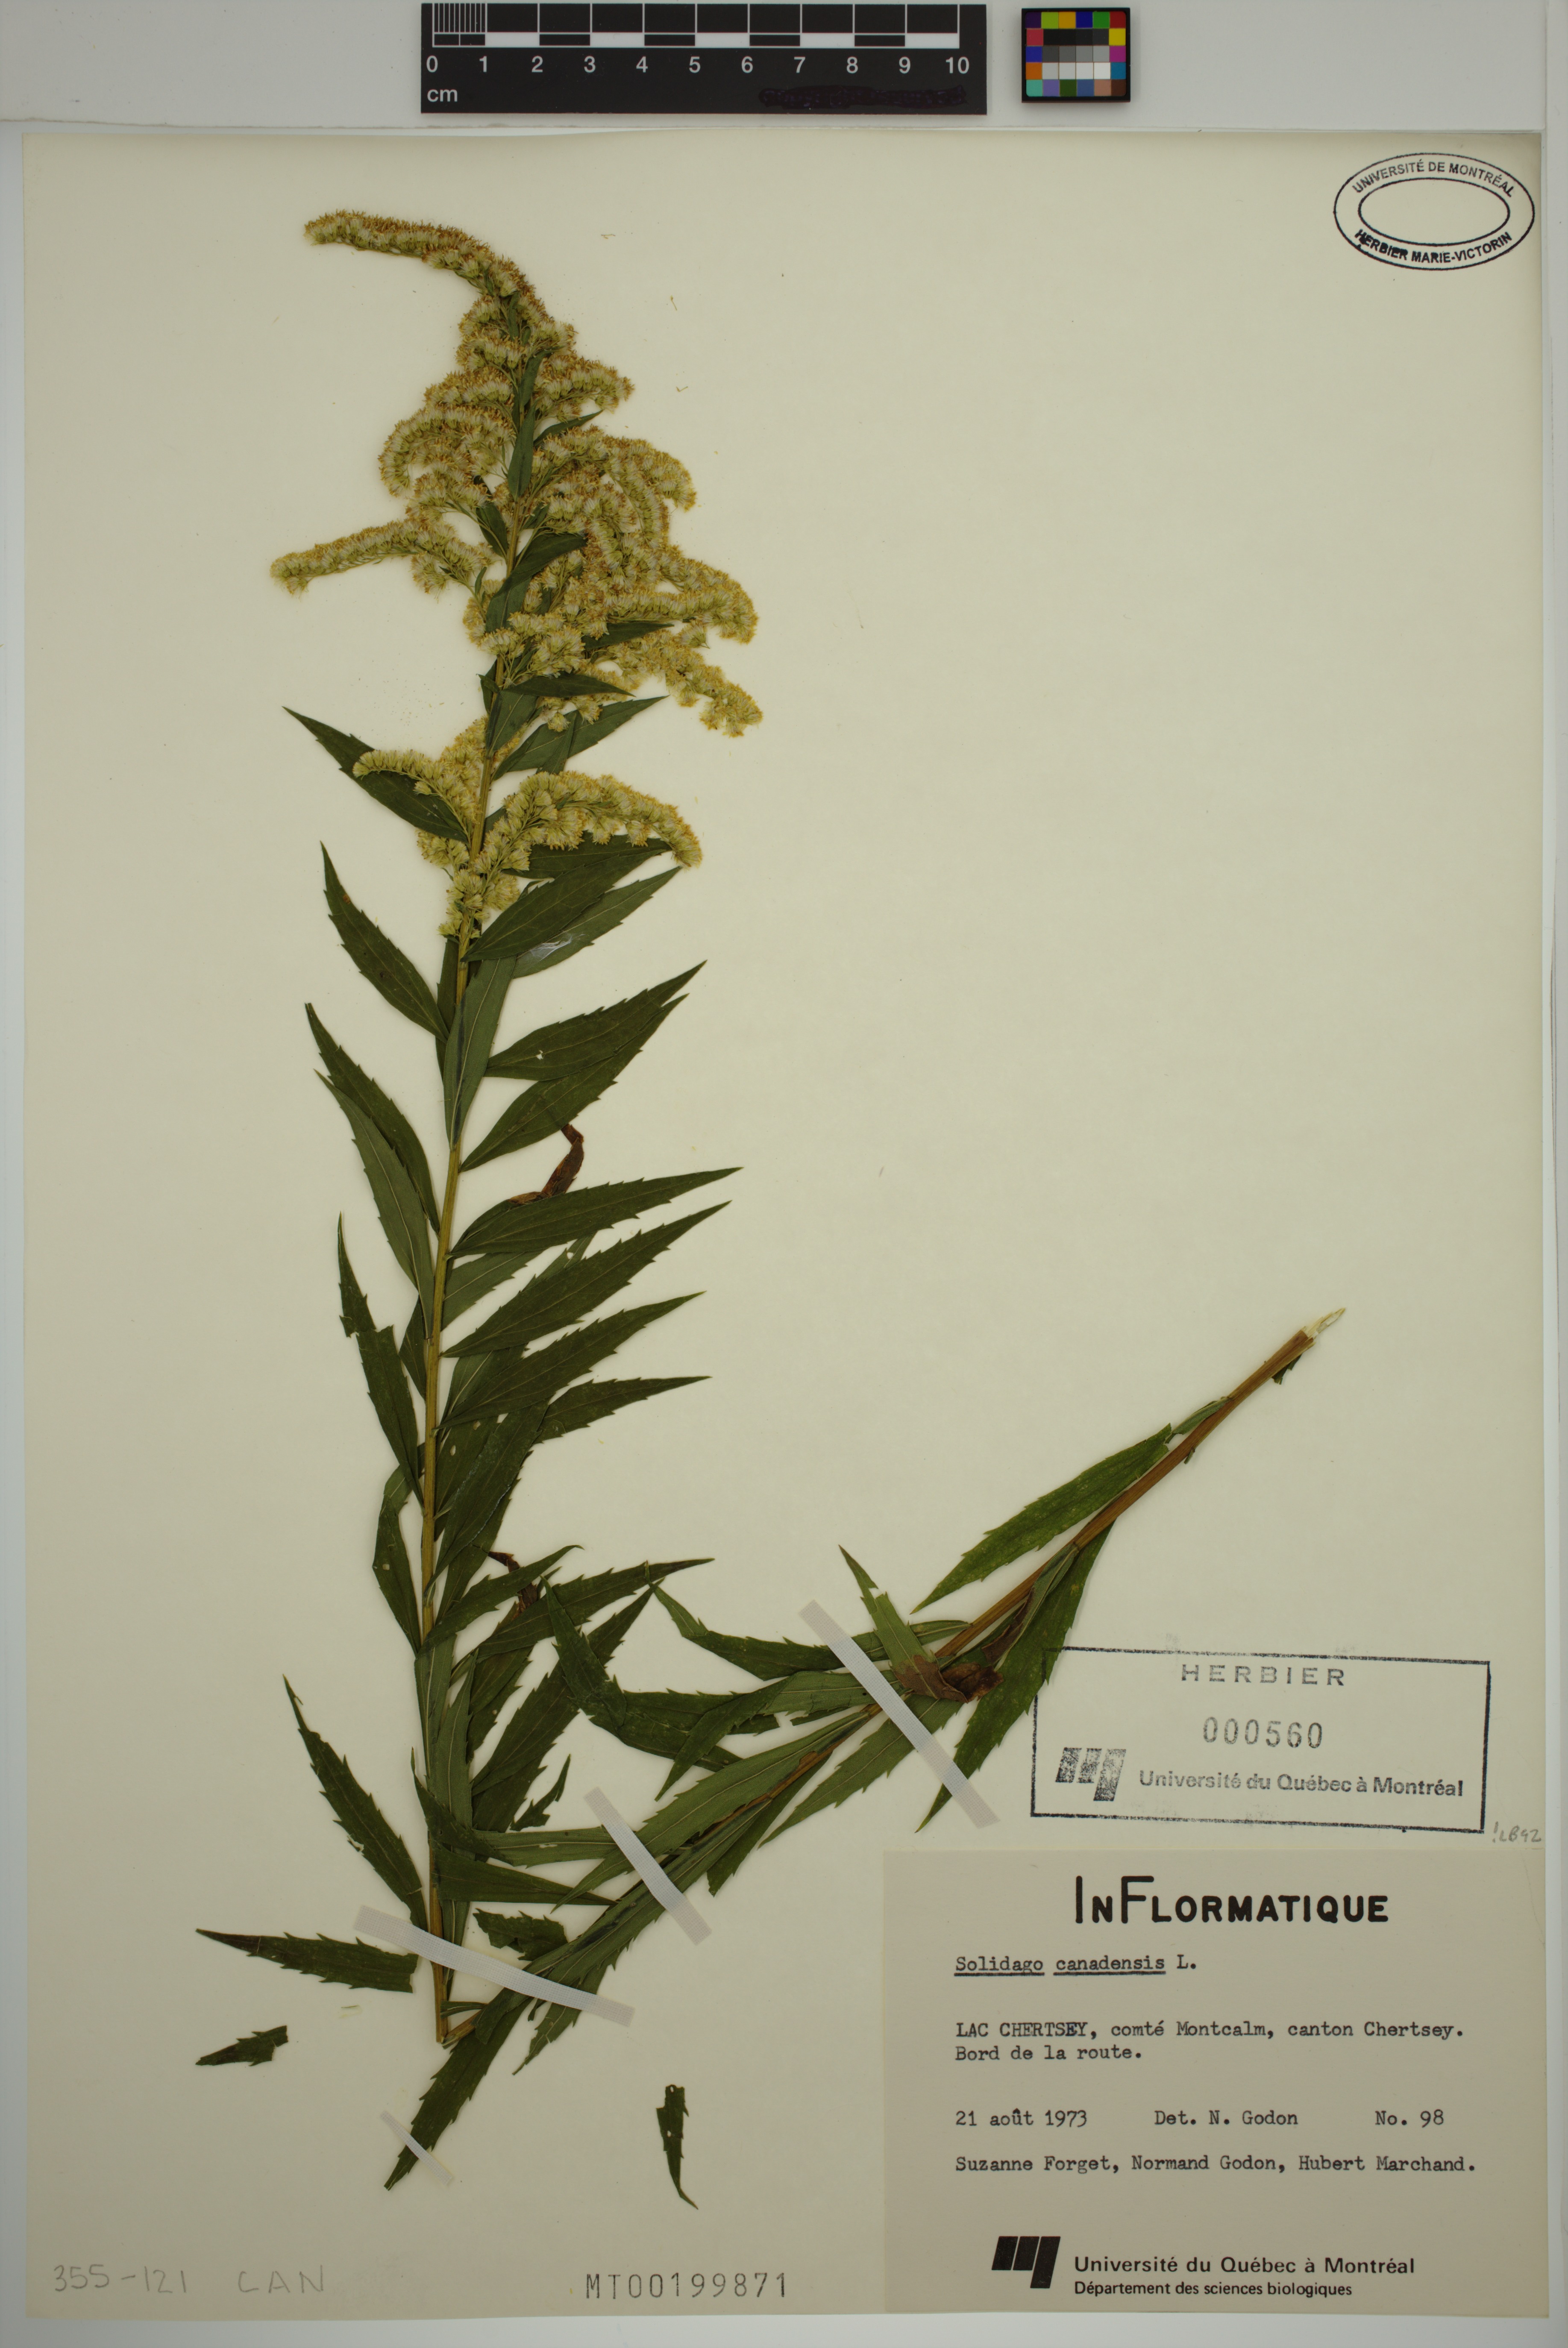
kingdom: Plantae
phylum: Tracheophyta
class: Magnoliopsida
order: Asterales
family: Asteraceae
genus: Solidago
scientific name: Solidago canadensis
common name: Canada goldenrod
